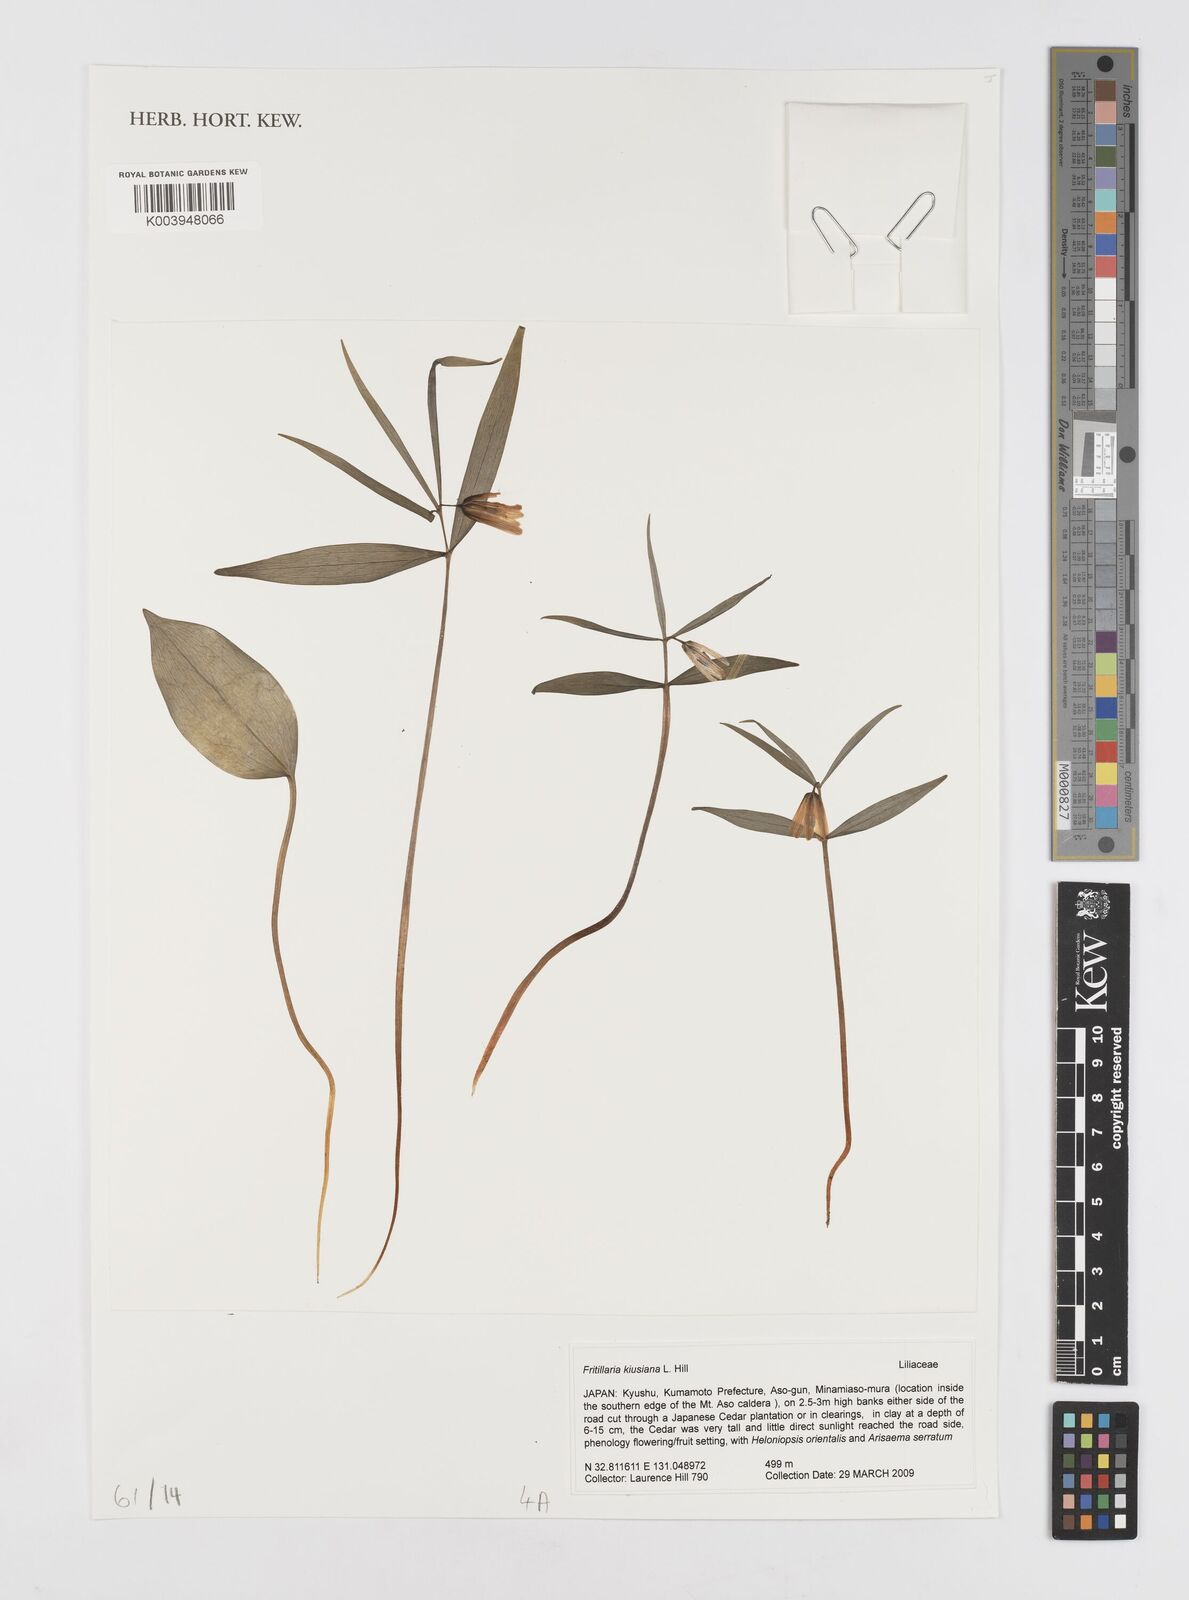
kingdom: Plantae
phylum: Tracheophyta
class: Liliopsida
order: Liliales
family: Liliaceae
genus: Fritillaria
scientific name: Fritillaria kiusiana
